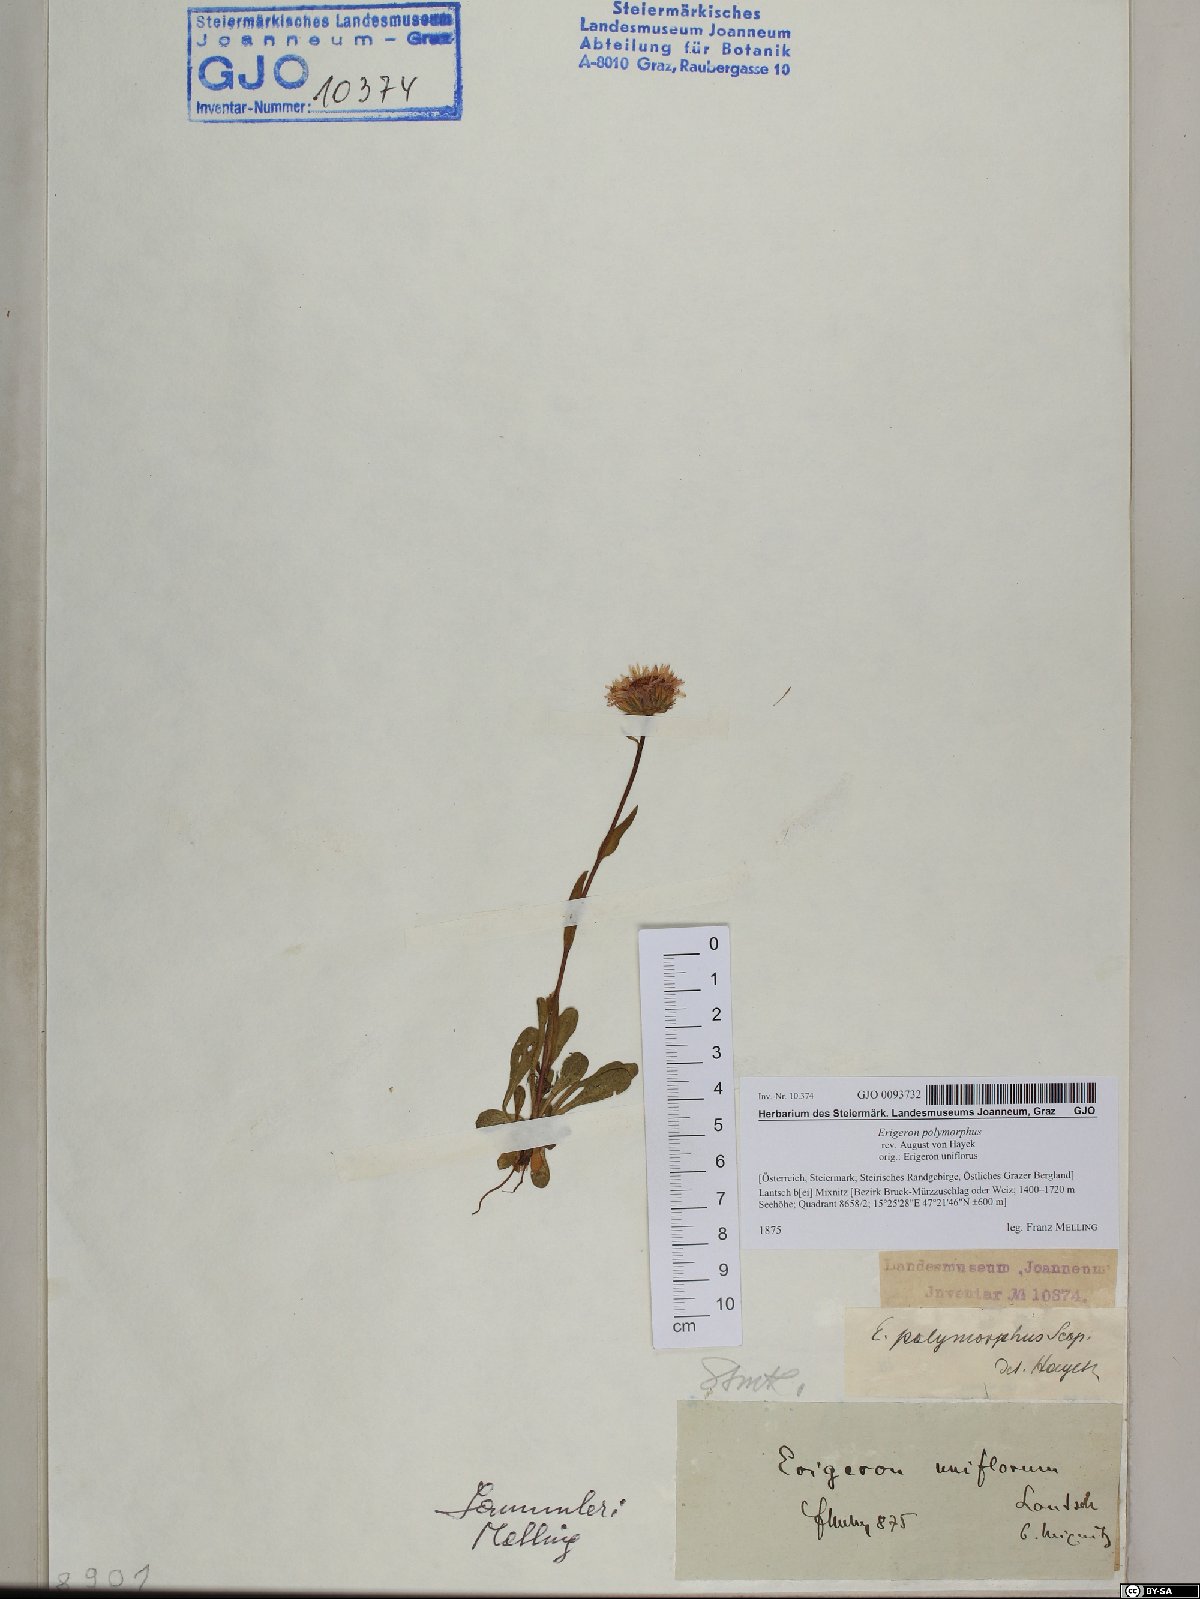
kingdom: Plantae
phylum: Tracheophyta
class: Magnoliopsida
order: Asterales
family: Asteraceae
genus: Erigeron
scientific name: Erigeron alpinus
